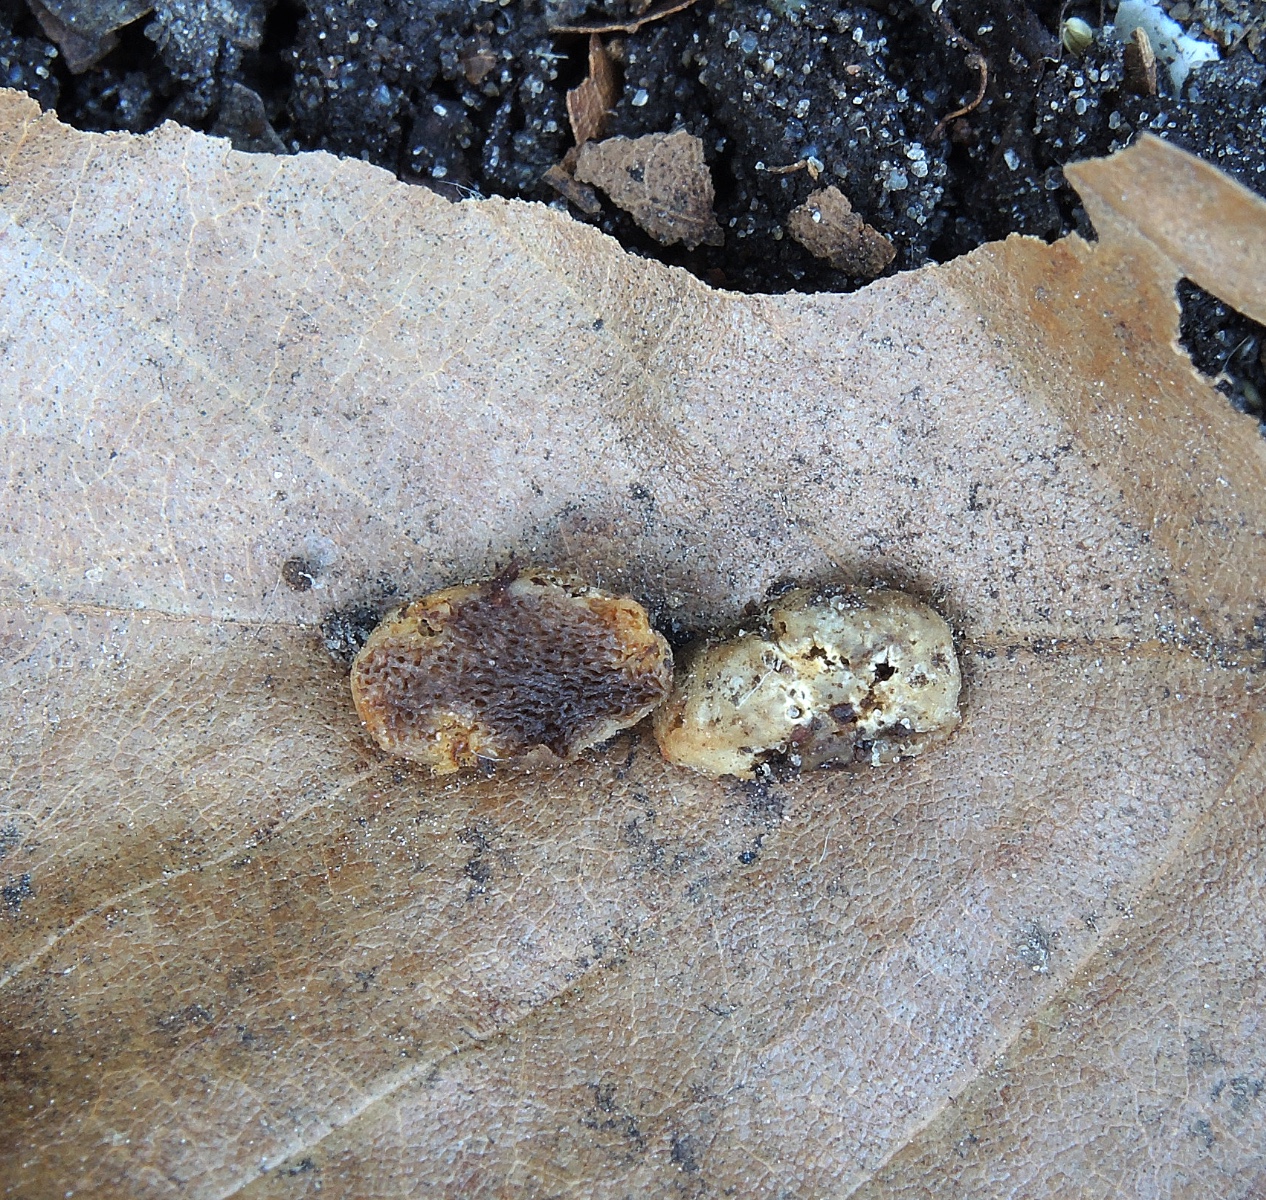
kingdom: Fungi
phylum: Basidiomycota
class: Agaricomycetes
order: Agaricales
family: Hymenogastraceae
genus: Hymenogaster
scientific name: Hymenogaster
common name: knoldtrøffel
